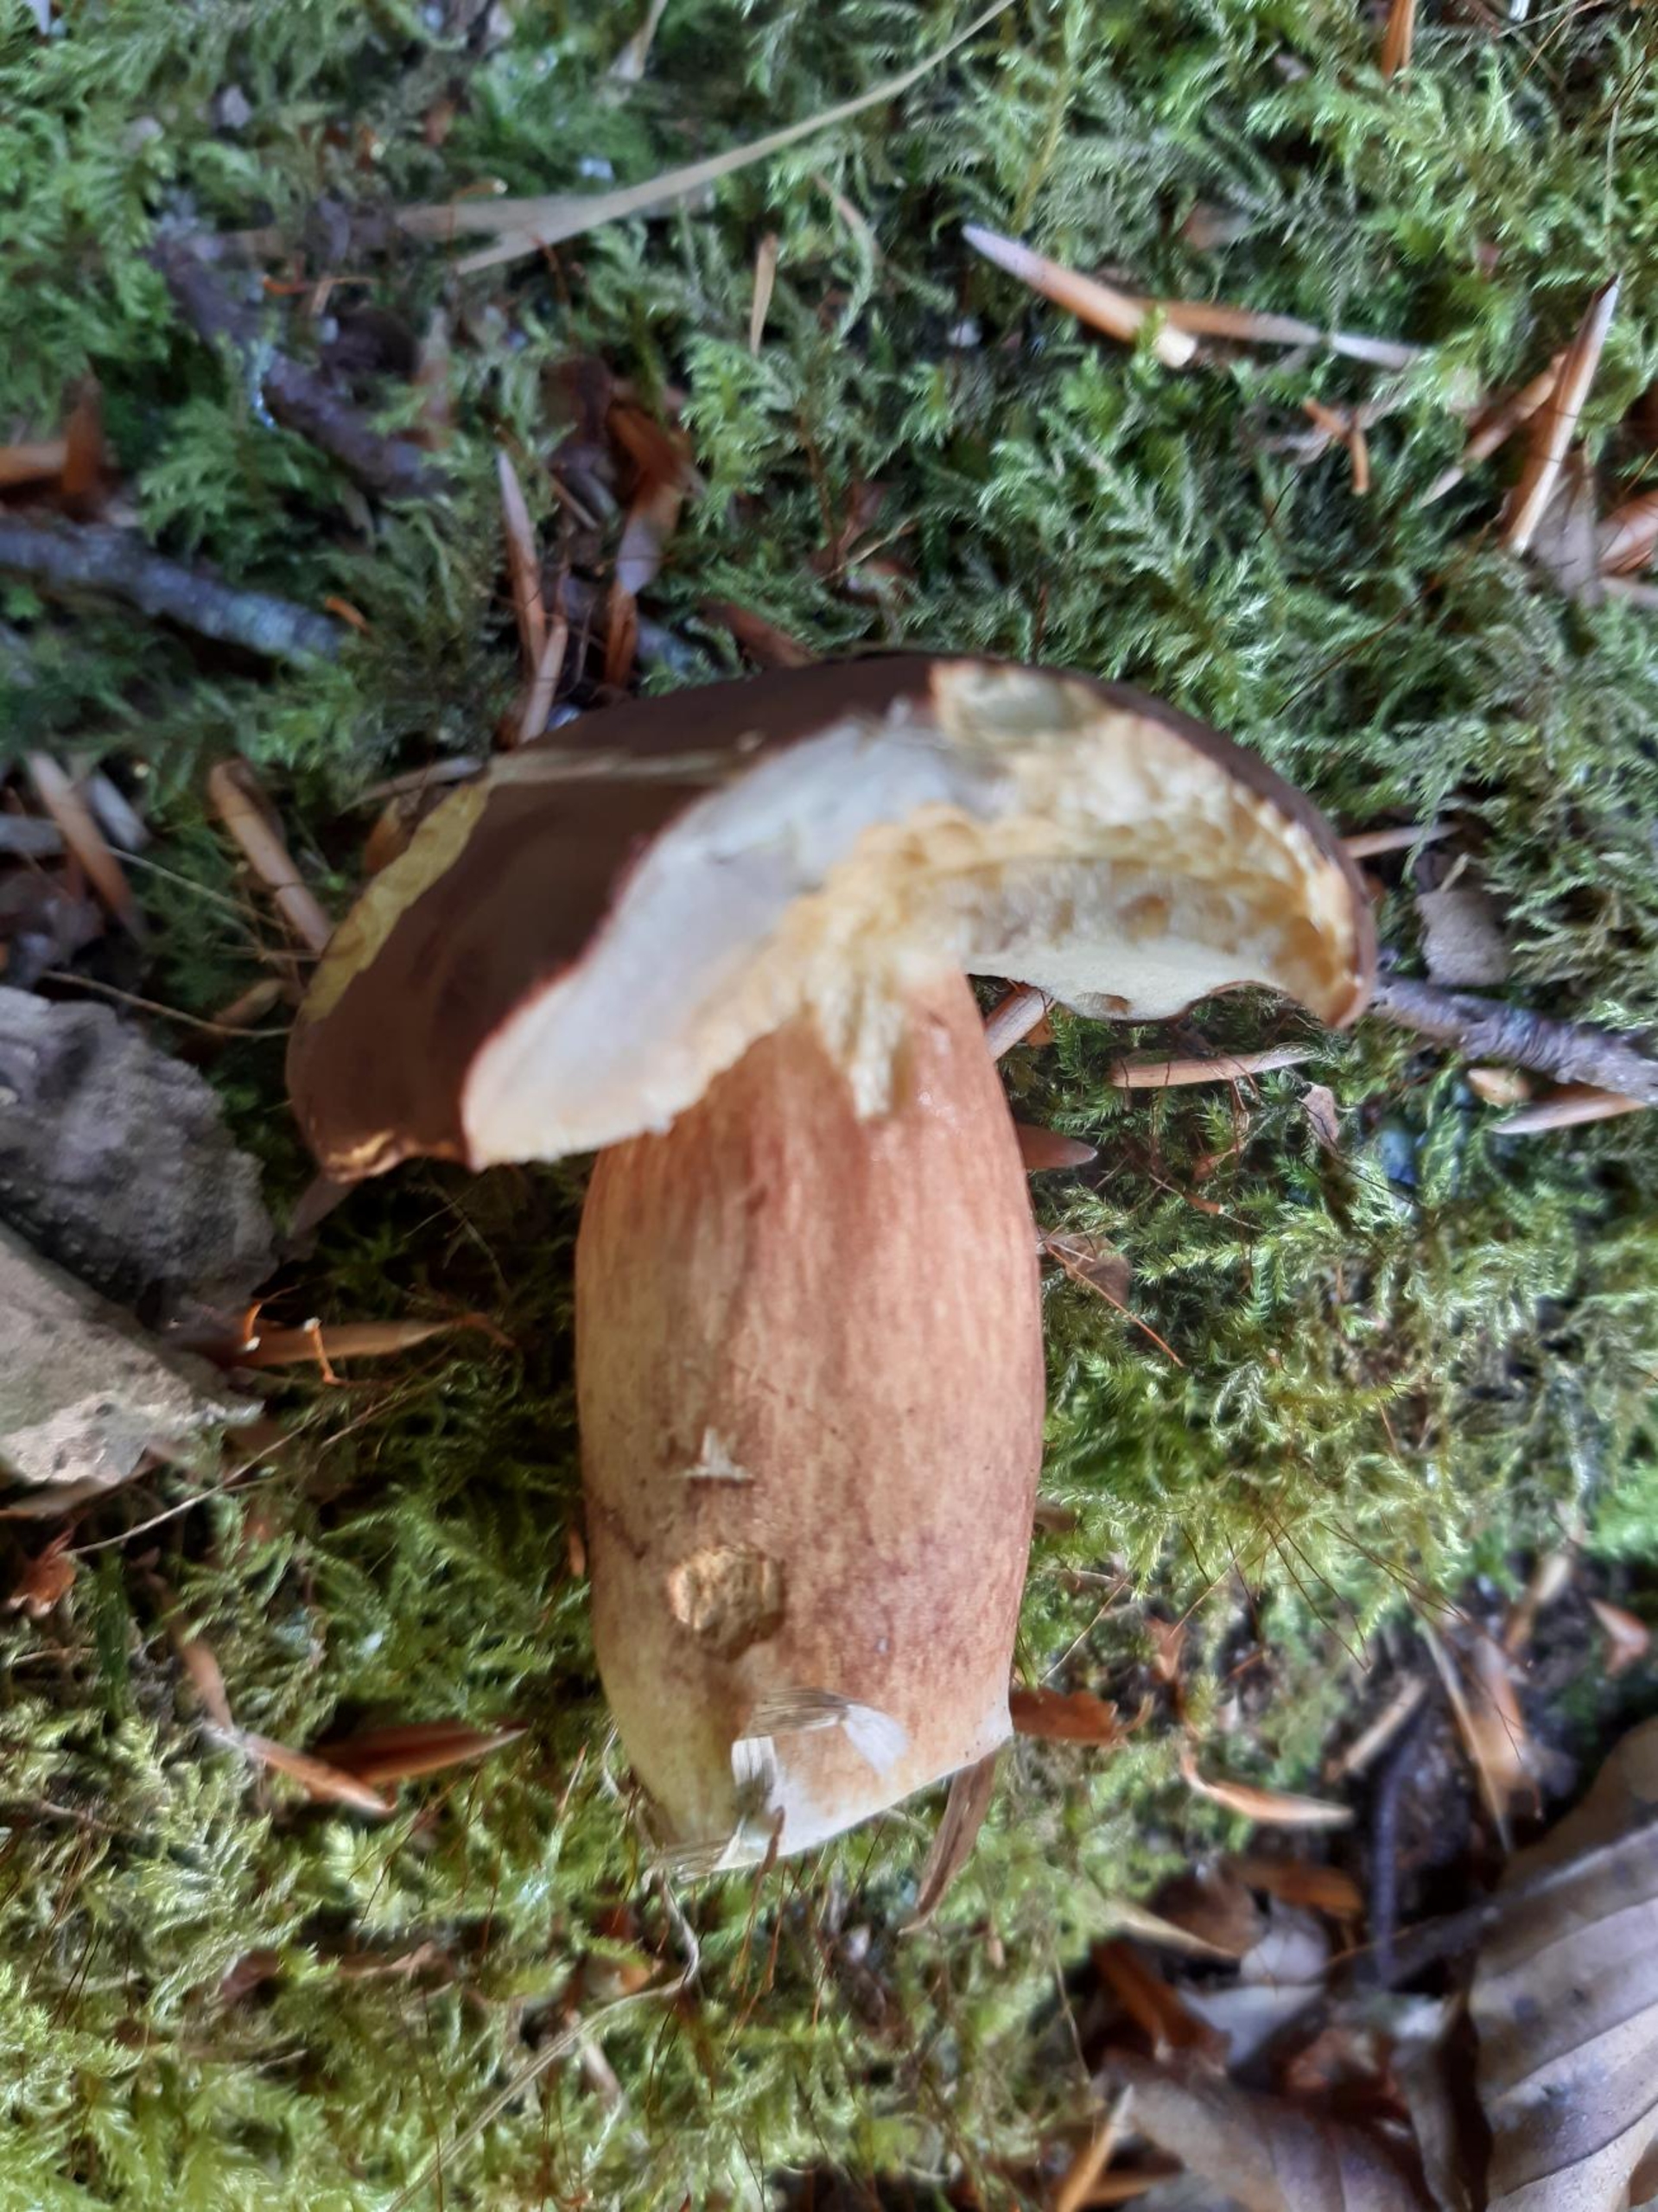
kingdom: Fungi
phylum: Basidiomycota
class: Agaricomycetes
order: Boletales
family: Boletaceae
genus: Imleria
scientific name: Imleria badia
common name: Brunstokket rørhat
